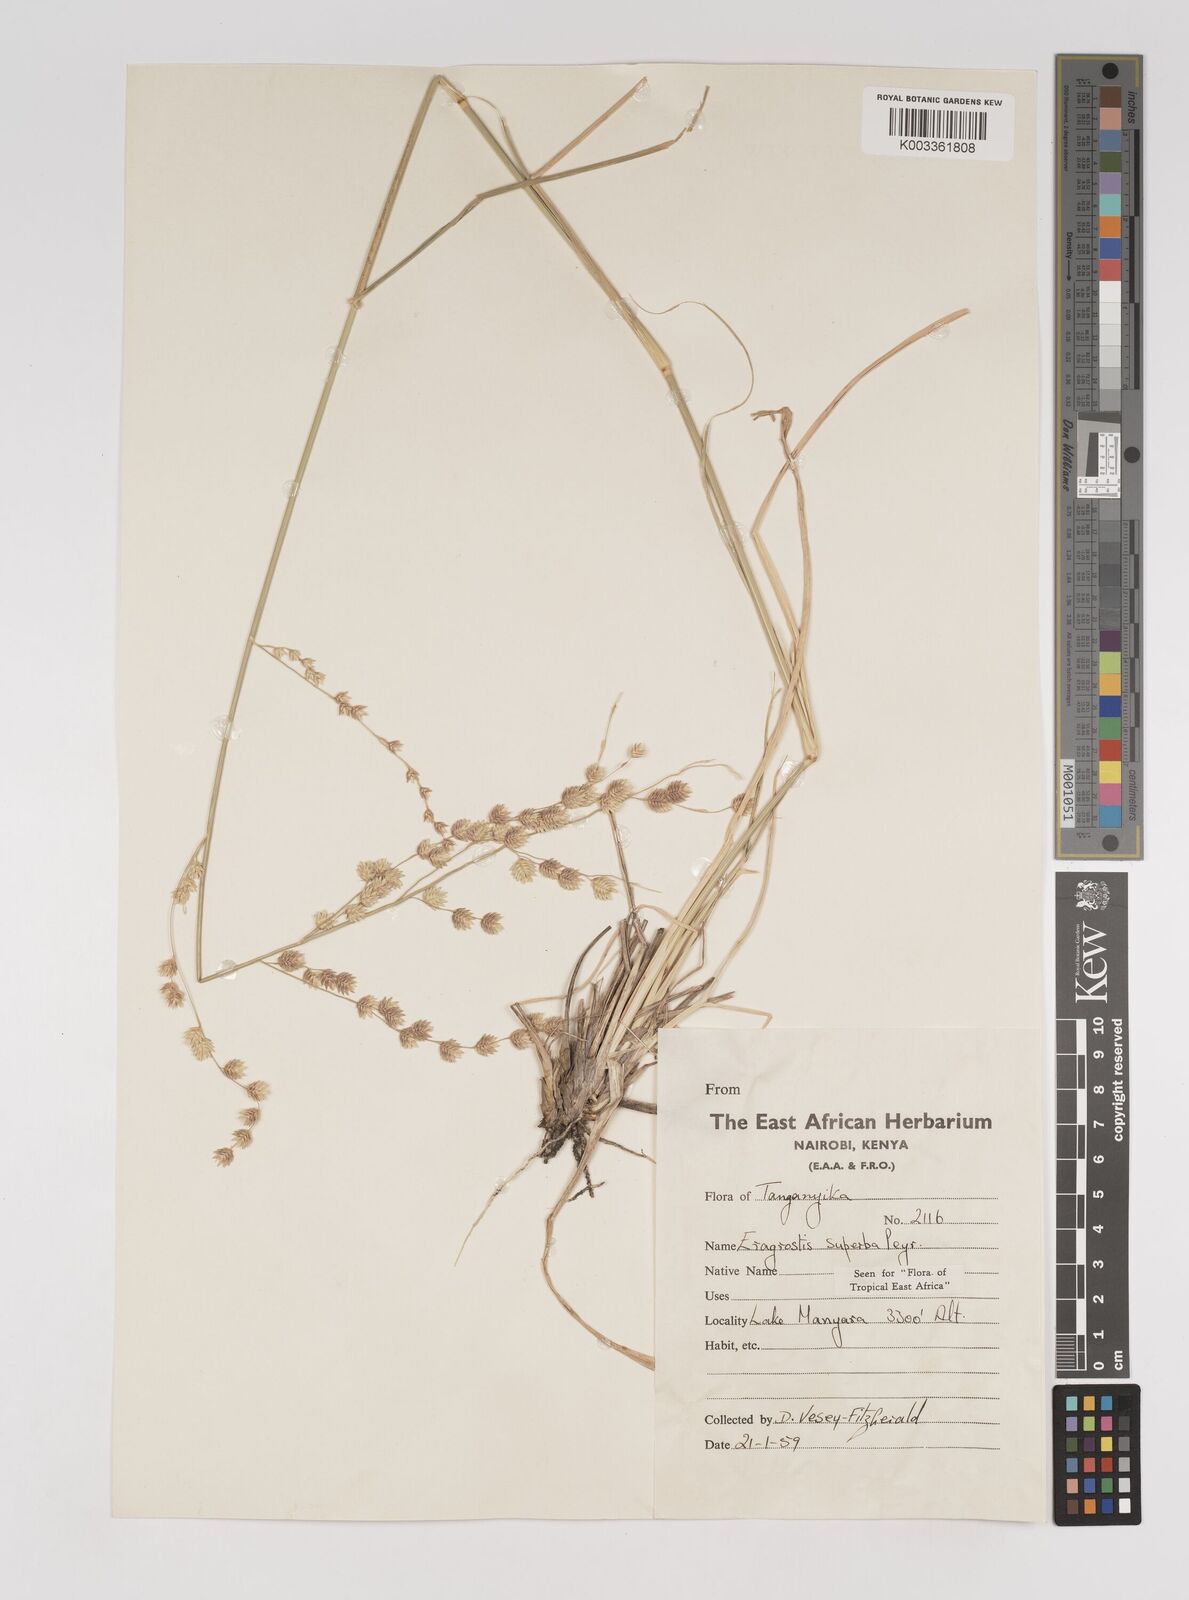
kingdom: Plantae
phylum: Tracheophyta
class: Liliopsida
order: Poales
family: Poaceae
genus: Eragrostis
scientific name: Eragrostis superba
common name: Wilman lovegrass
